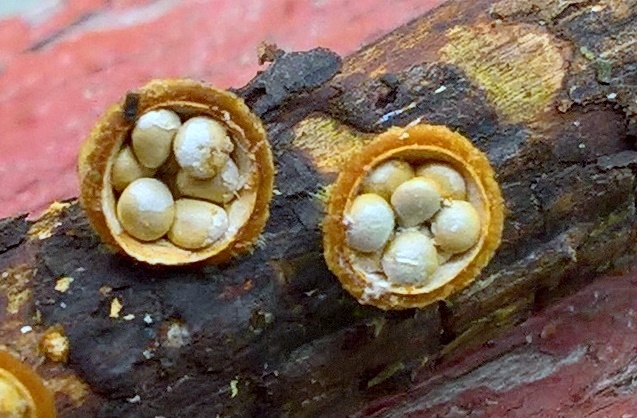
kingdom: Fungi
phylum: Basidiomycota
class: Agaricomycetes
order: Agaricales
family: Nidulariaceae
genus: Crucibulum
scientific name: Crucibulum crucibuliforme
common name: krukkesvamp
